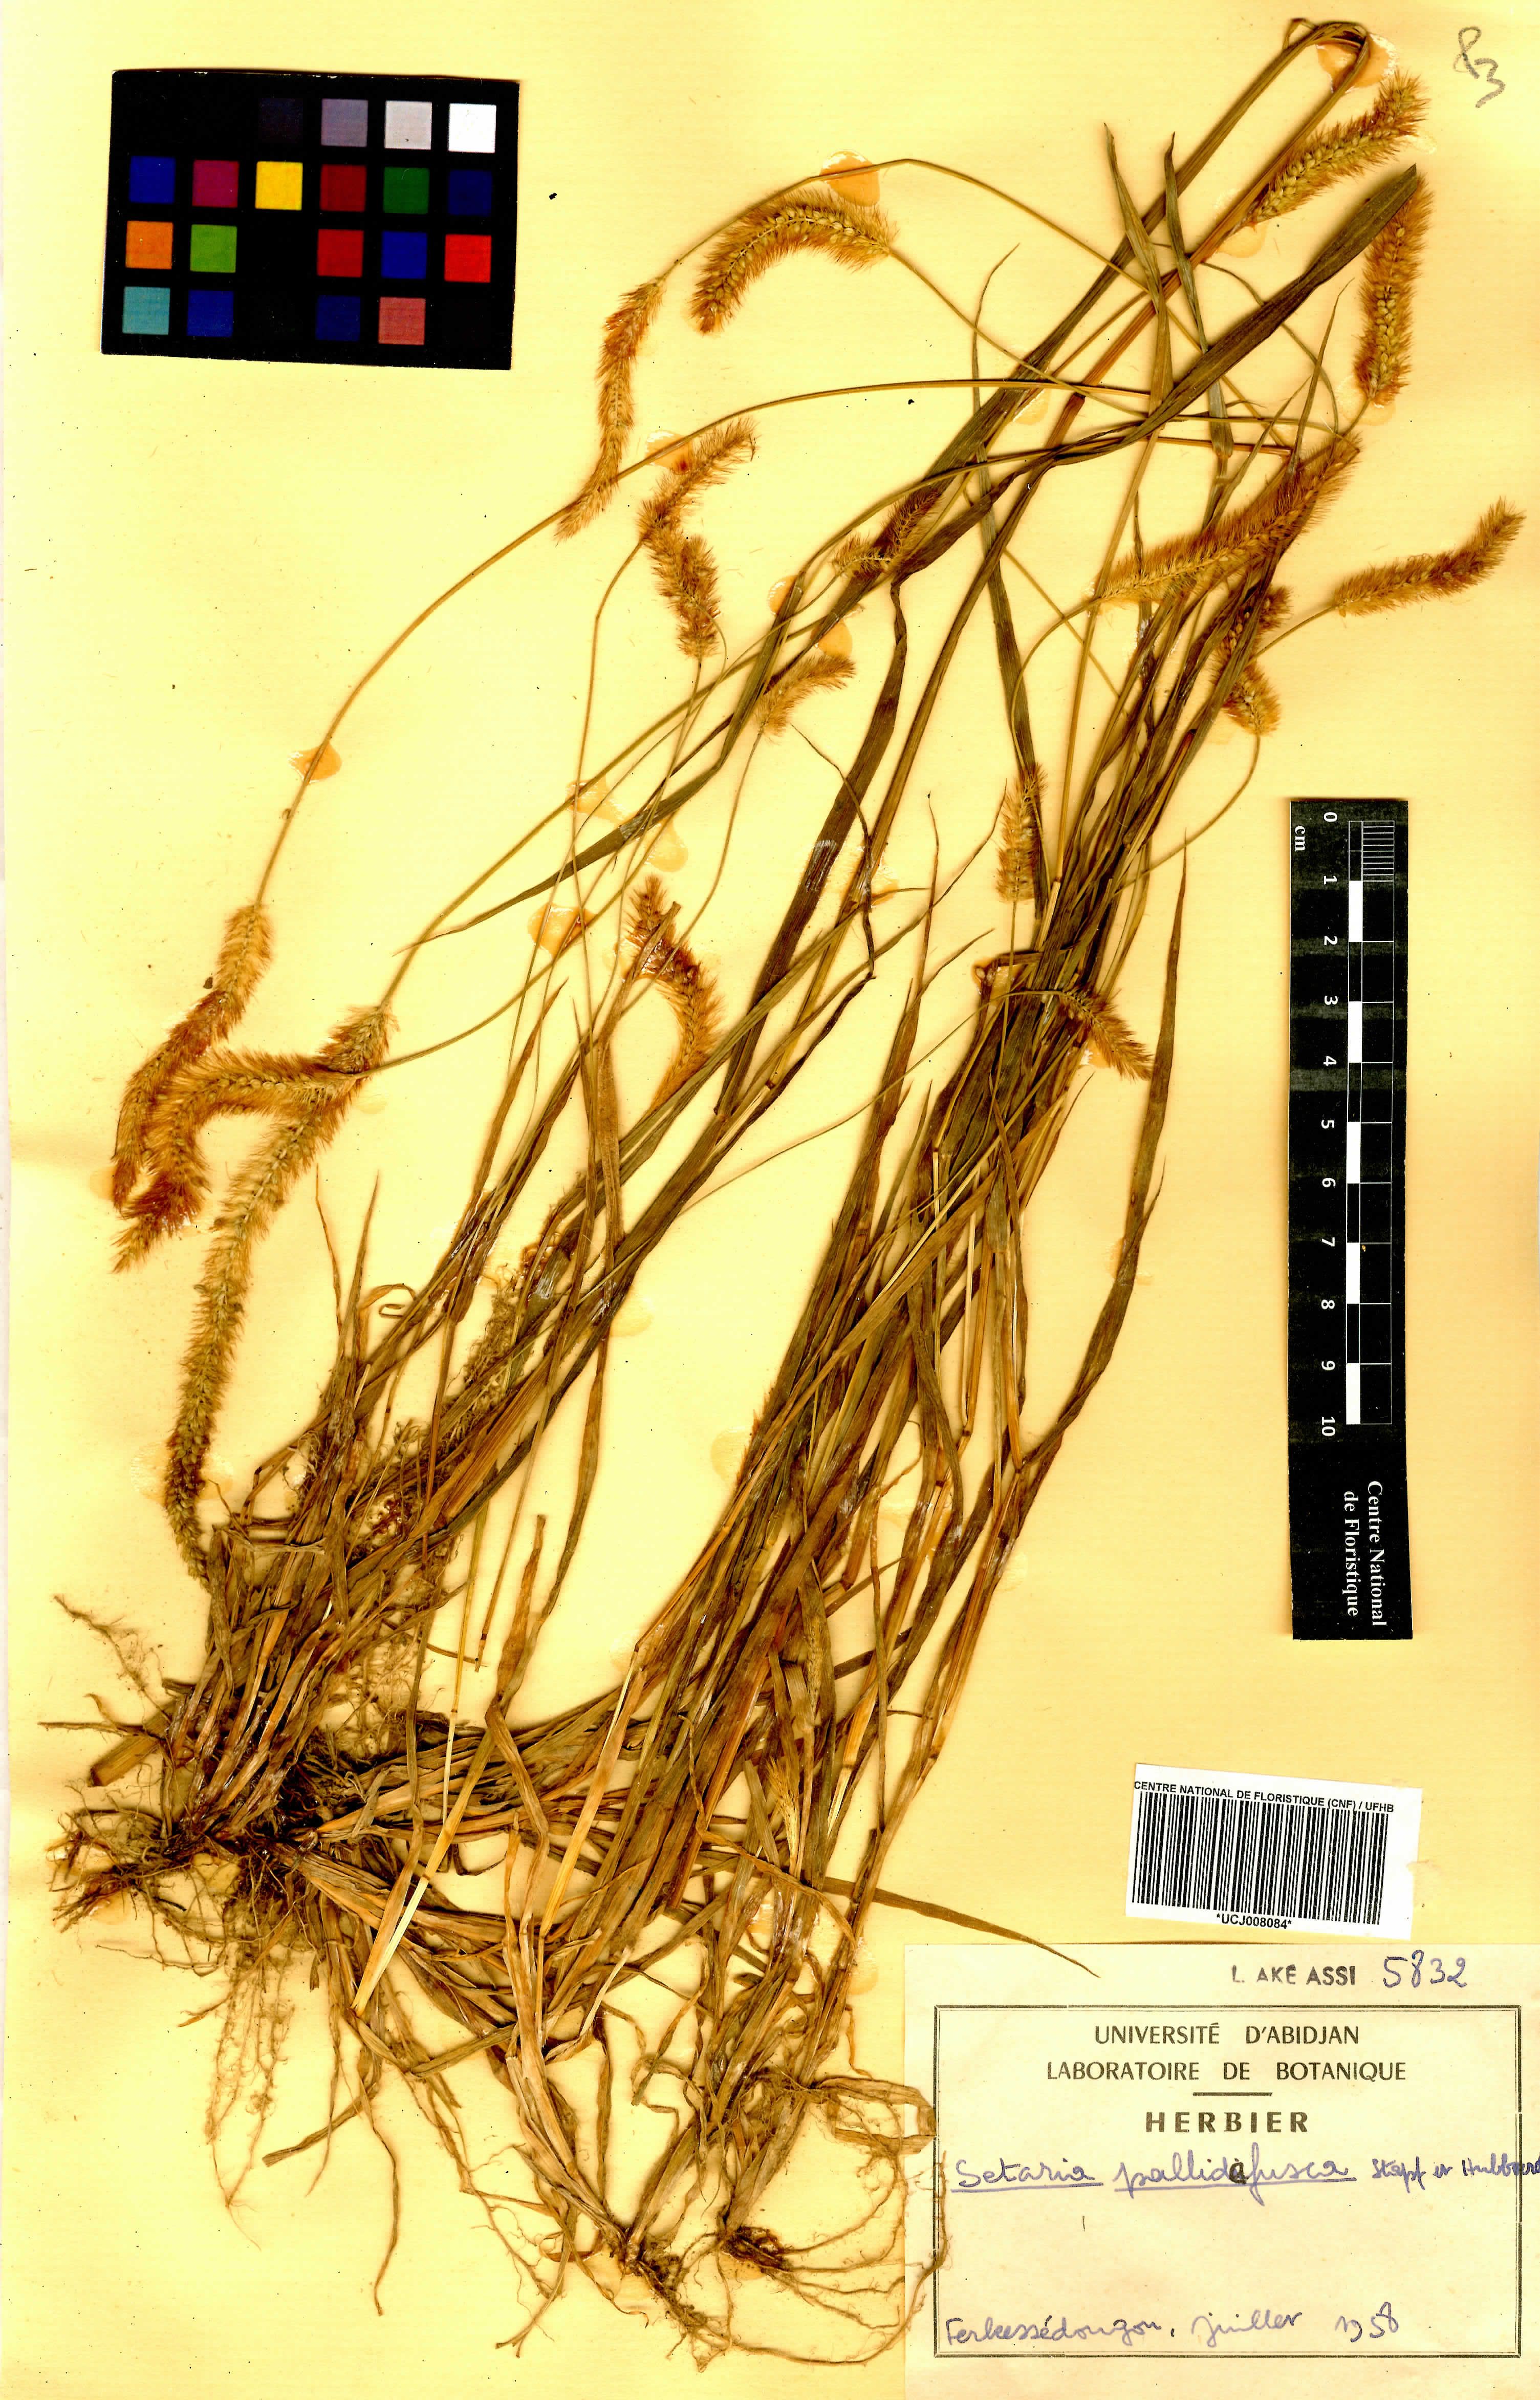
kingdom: Plantae
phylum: Tracheophyta
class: Liliopsida
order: Poales
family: Poaceae
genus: Setaria
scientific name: Setaria italica
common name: Foxtail bristle-grass
